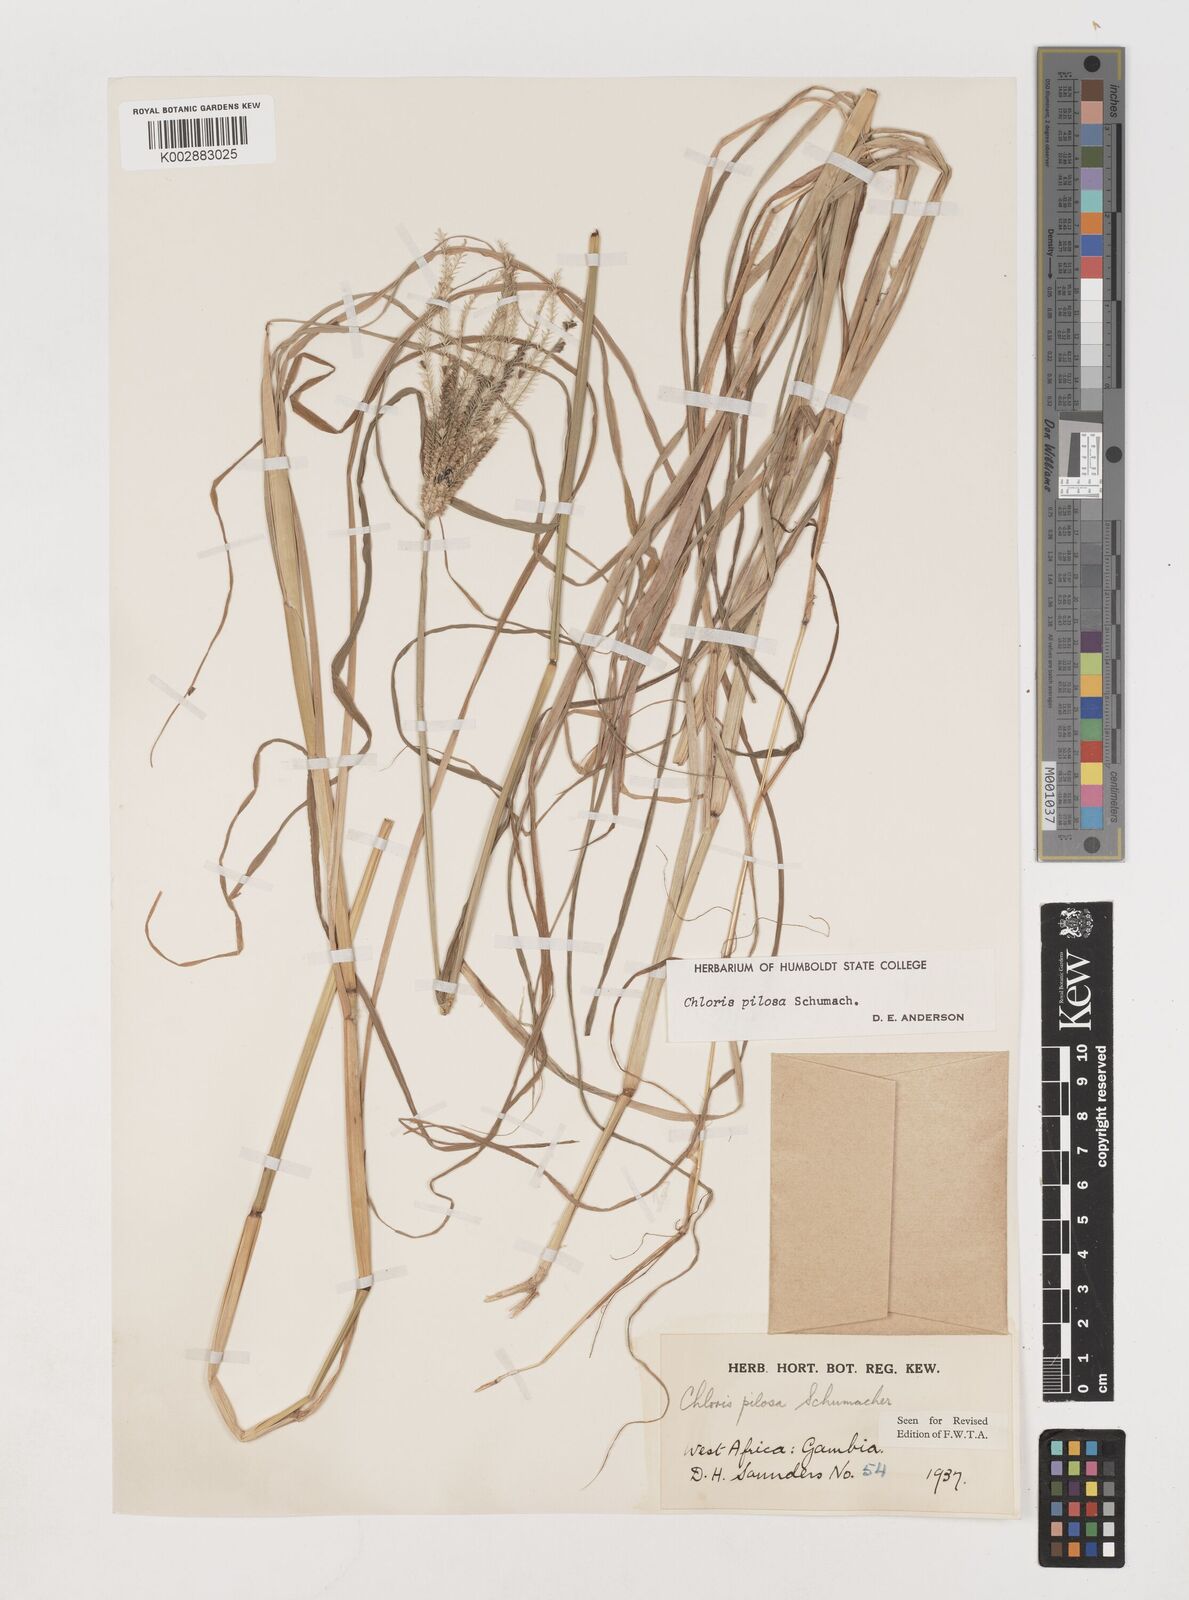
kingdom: Plantae
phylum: Tracheophyta
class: Liliopsida
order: Poales
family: Poaceae
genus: Chloris
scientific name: Chloris pilosa
